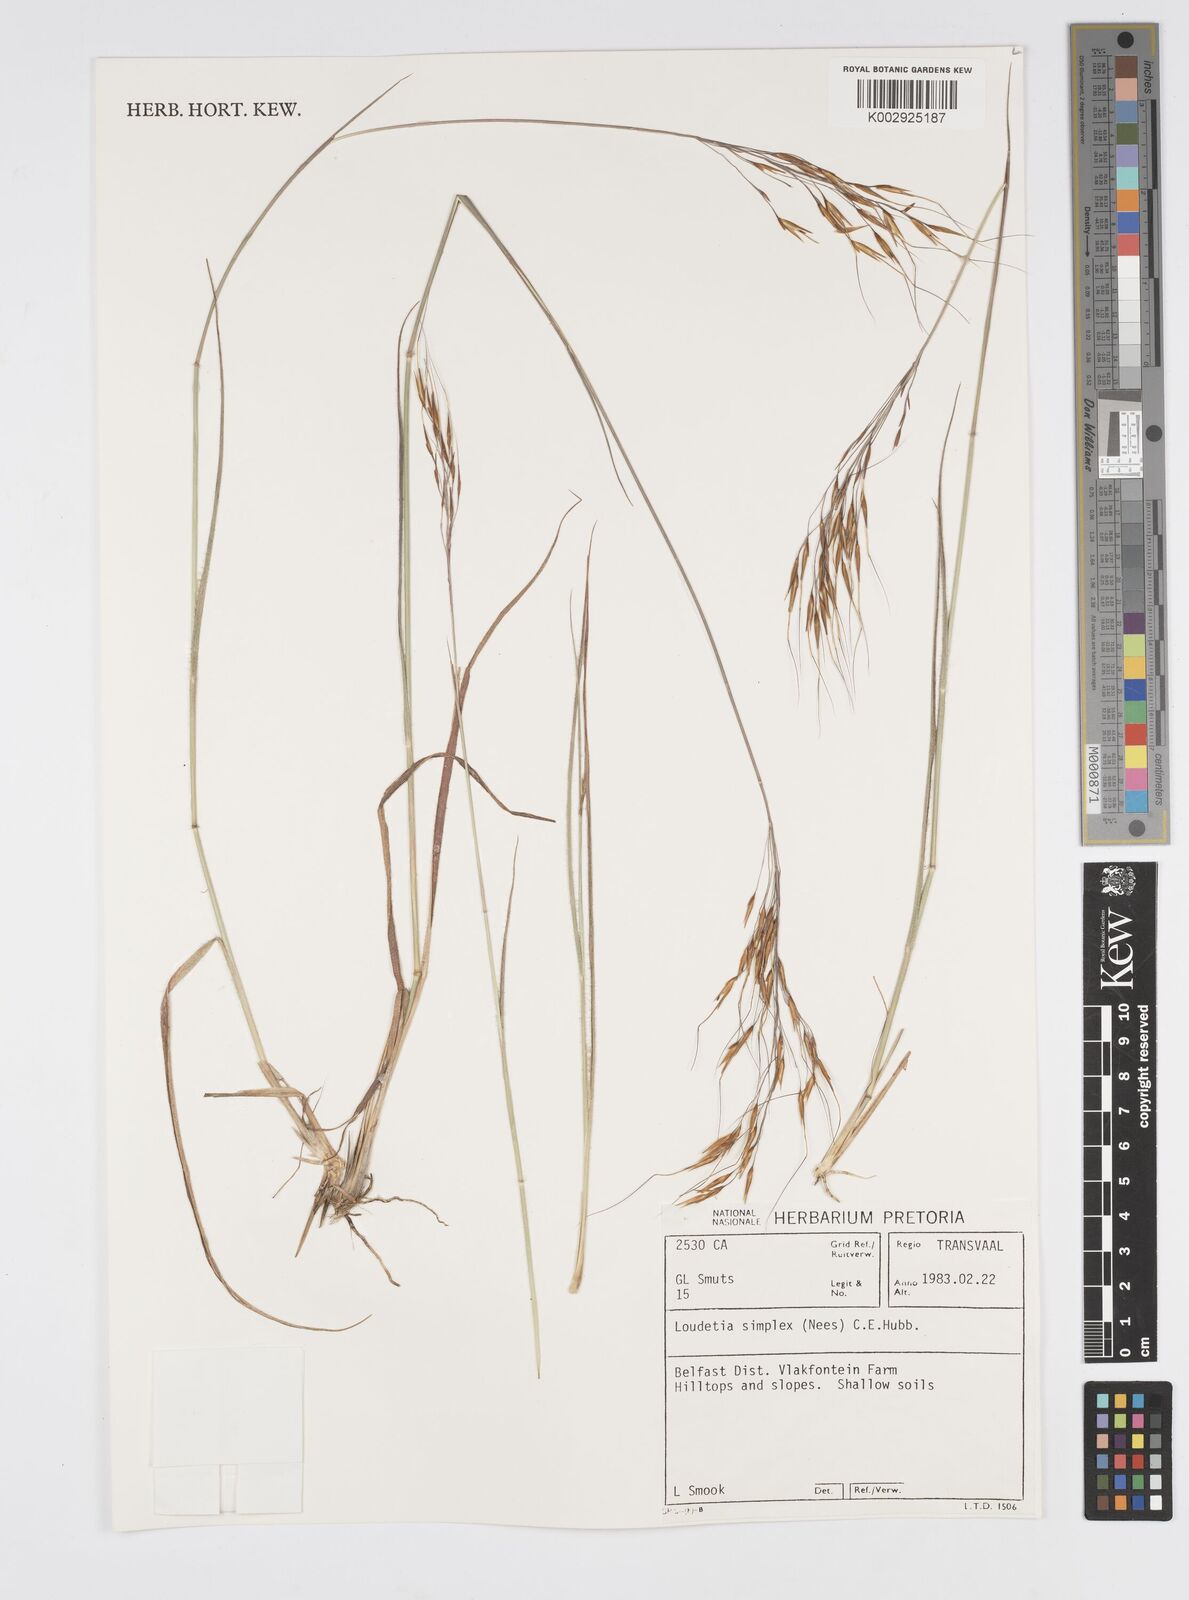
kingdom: Plantae
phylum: Tracheophyta
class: Liliopsida
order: Poales
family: Poaceae
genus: Loudetia
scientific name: Loudetia simplex
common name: Common russet grass
